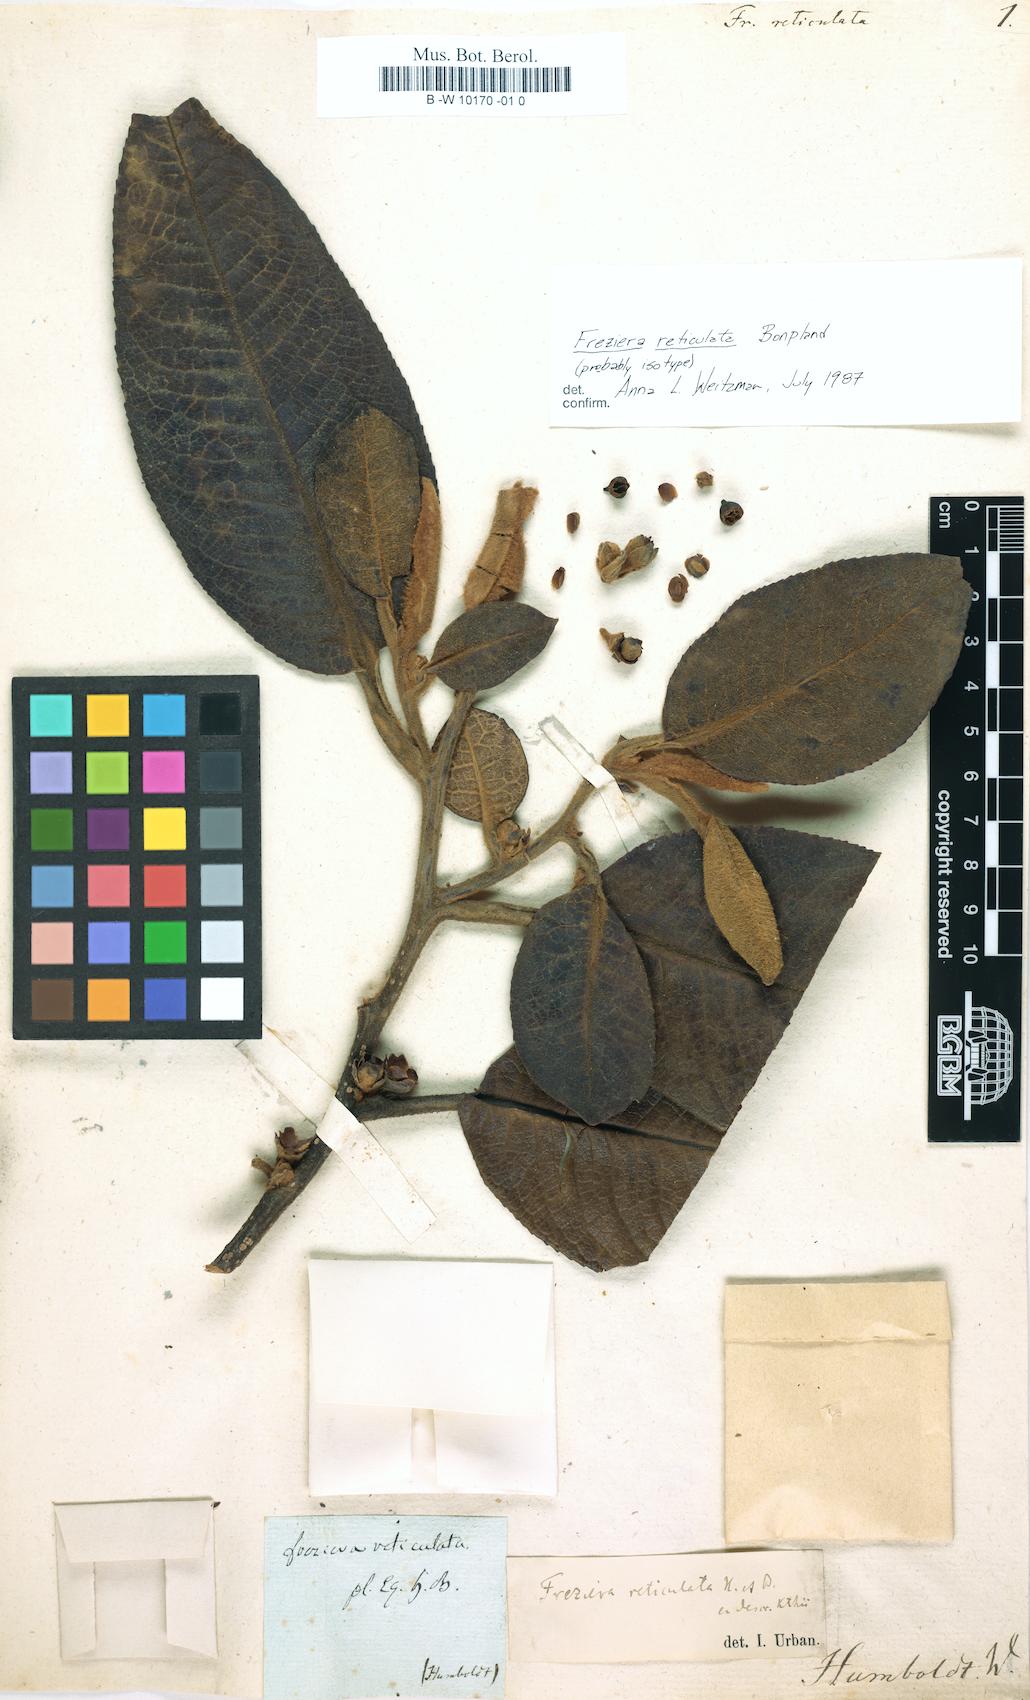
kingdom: Plantae
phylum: Tracheophyta
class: Magnoliopsida
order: Ericales
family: Pentaphylacaceae
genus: Freziera
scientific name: Freziera reticulata
